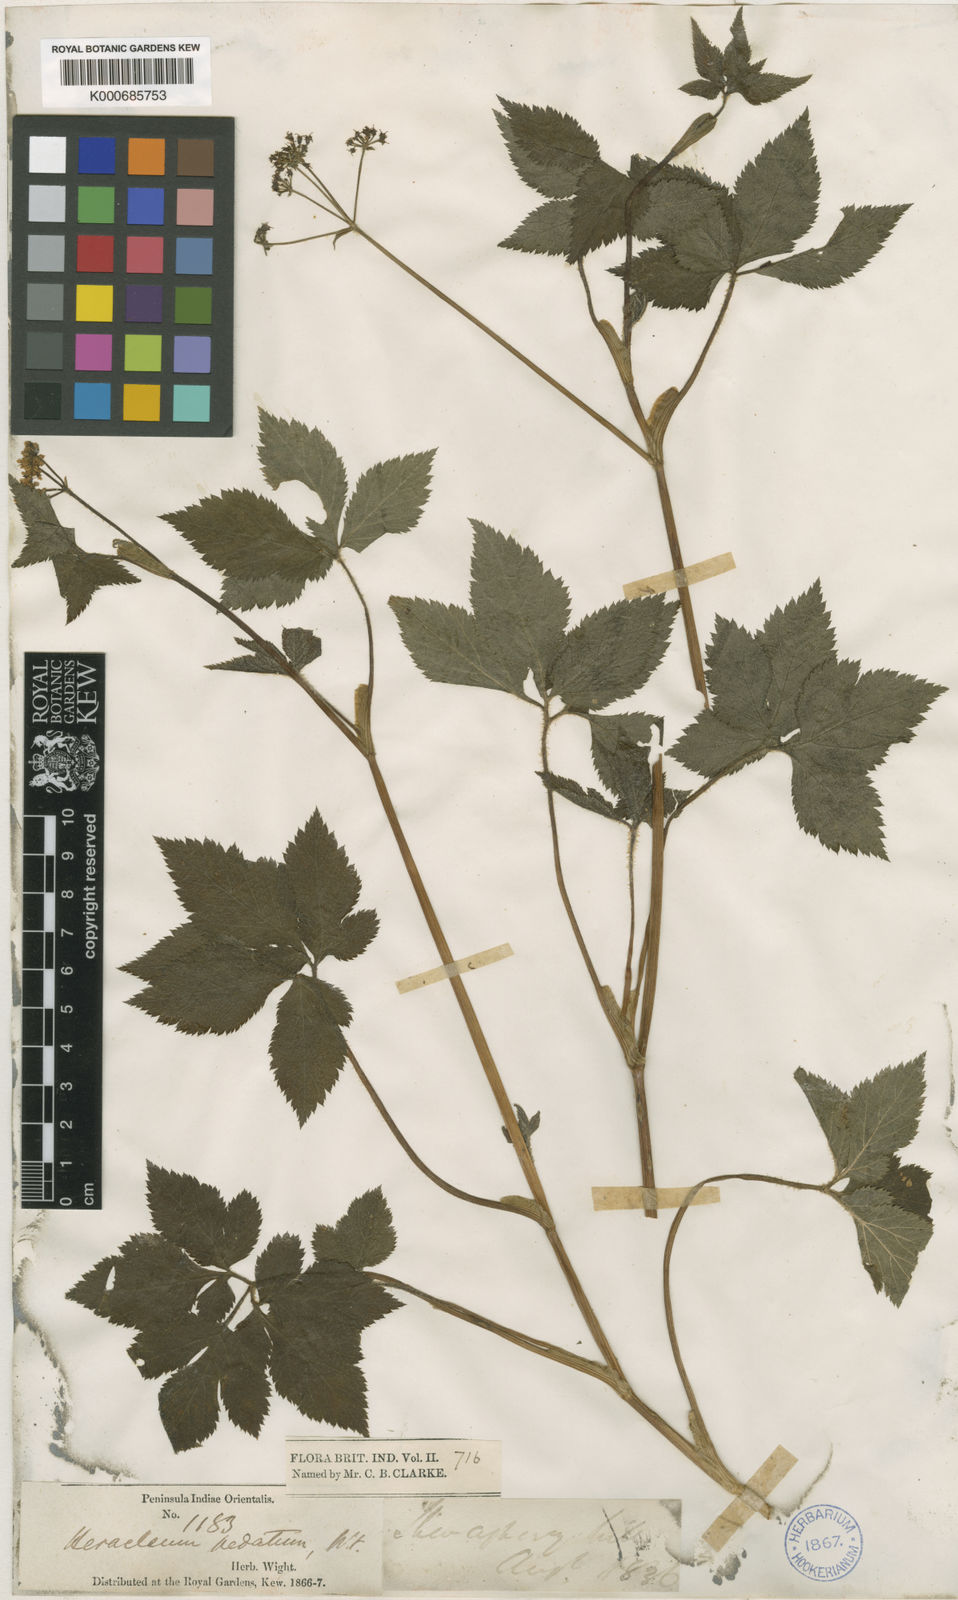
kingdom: Plantae
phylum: Tracheophyta
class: Magnoliopsida
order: Apiales
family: Apiaceae
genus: Vanasushava
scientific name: Vanasushava pedata
